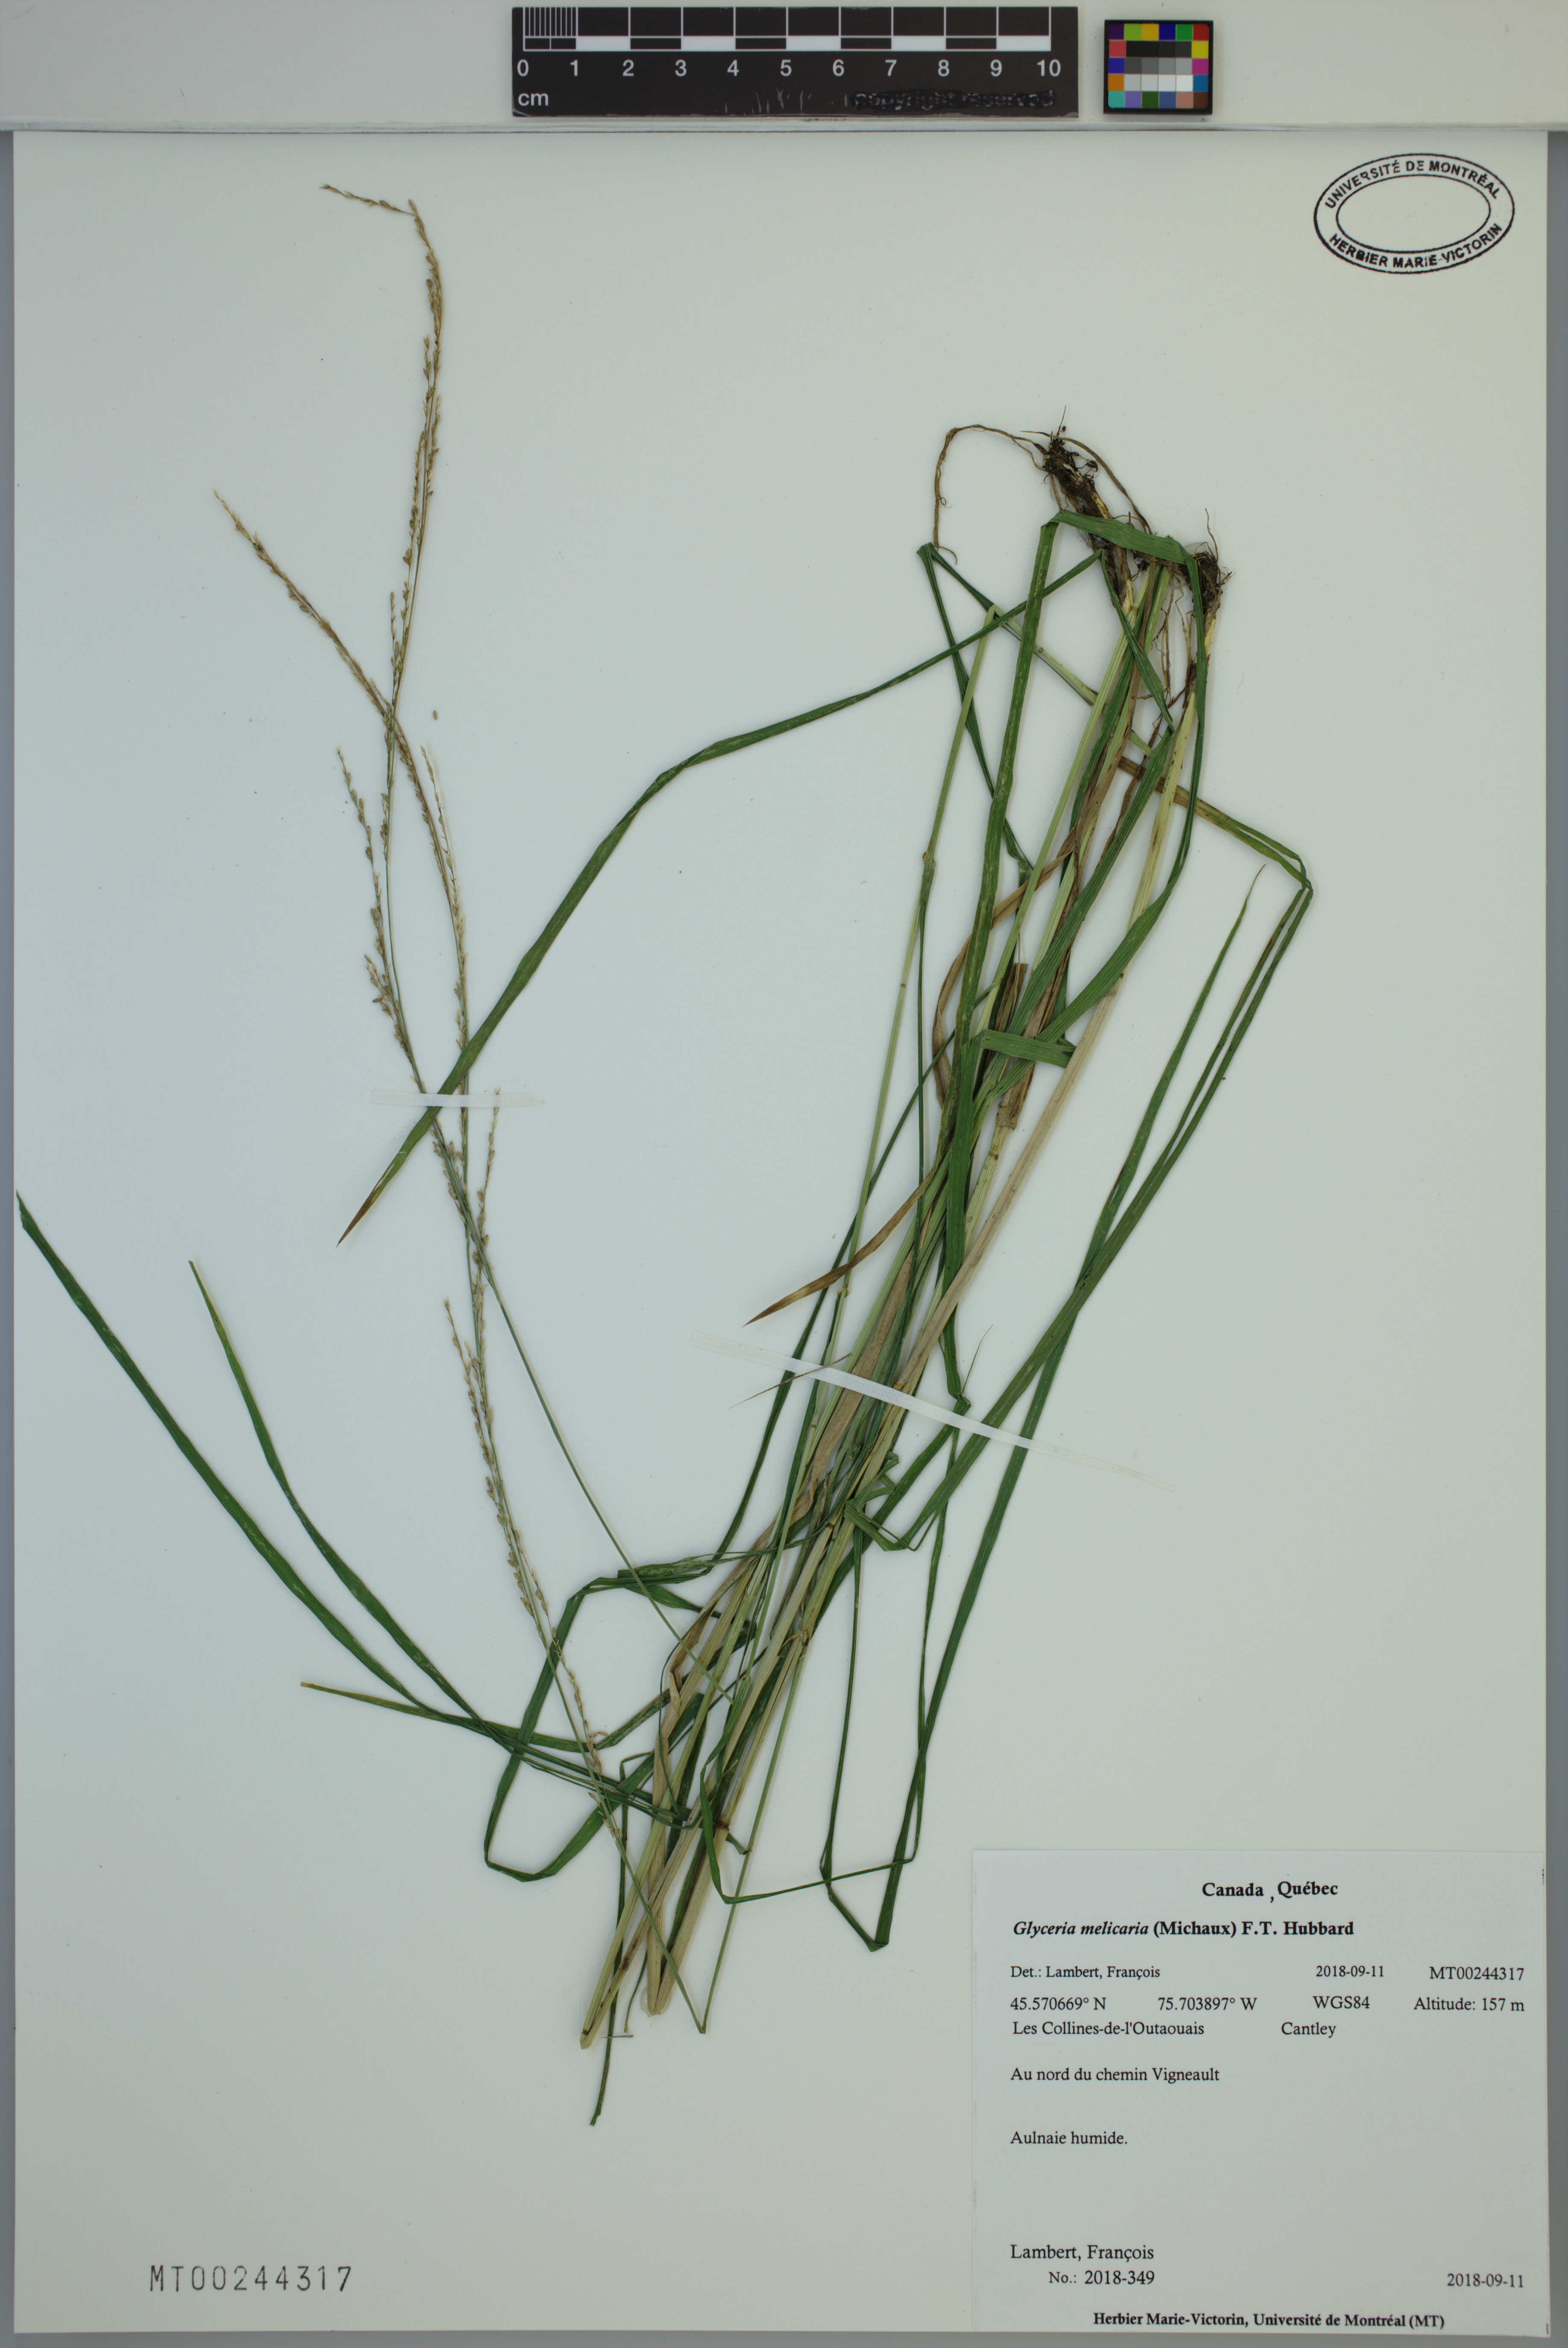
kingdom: Plantae
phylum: Tracheophyta
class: Liliopsida
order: Poales
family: Poaceae
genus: Glyceria
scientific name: Glyceria melicaria
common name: Long mannagrass
